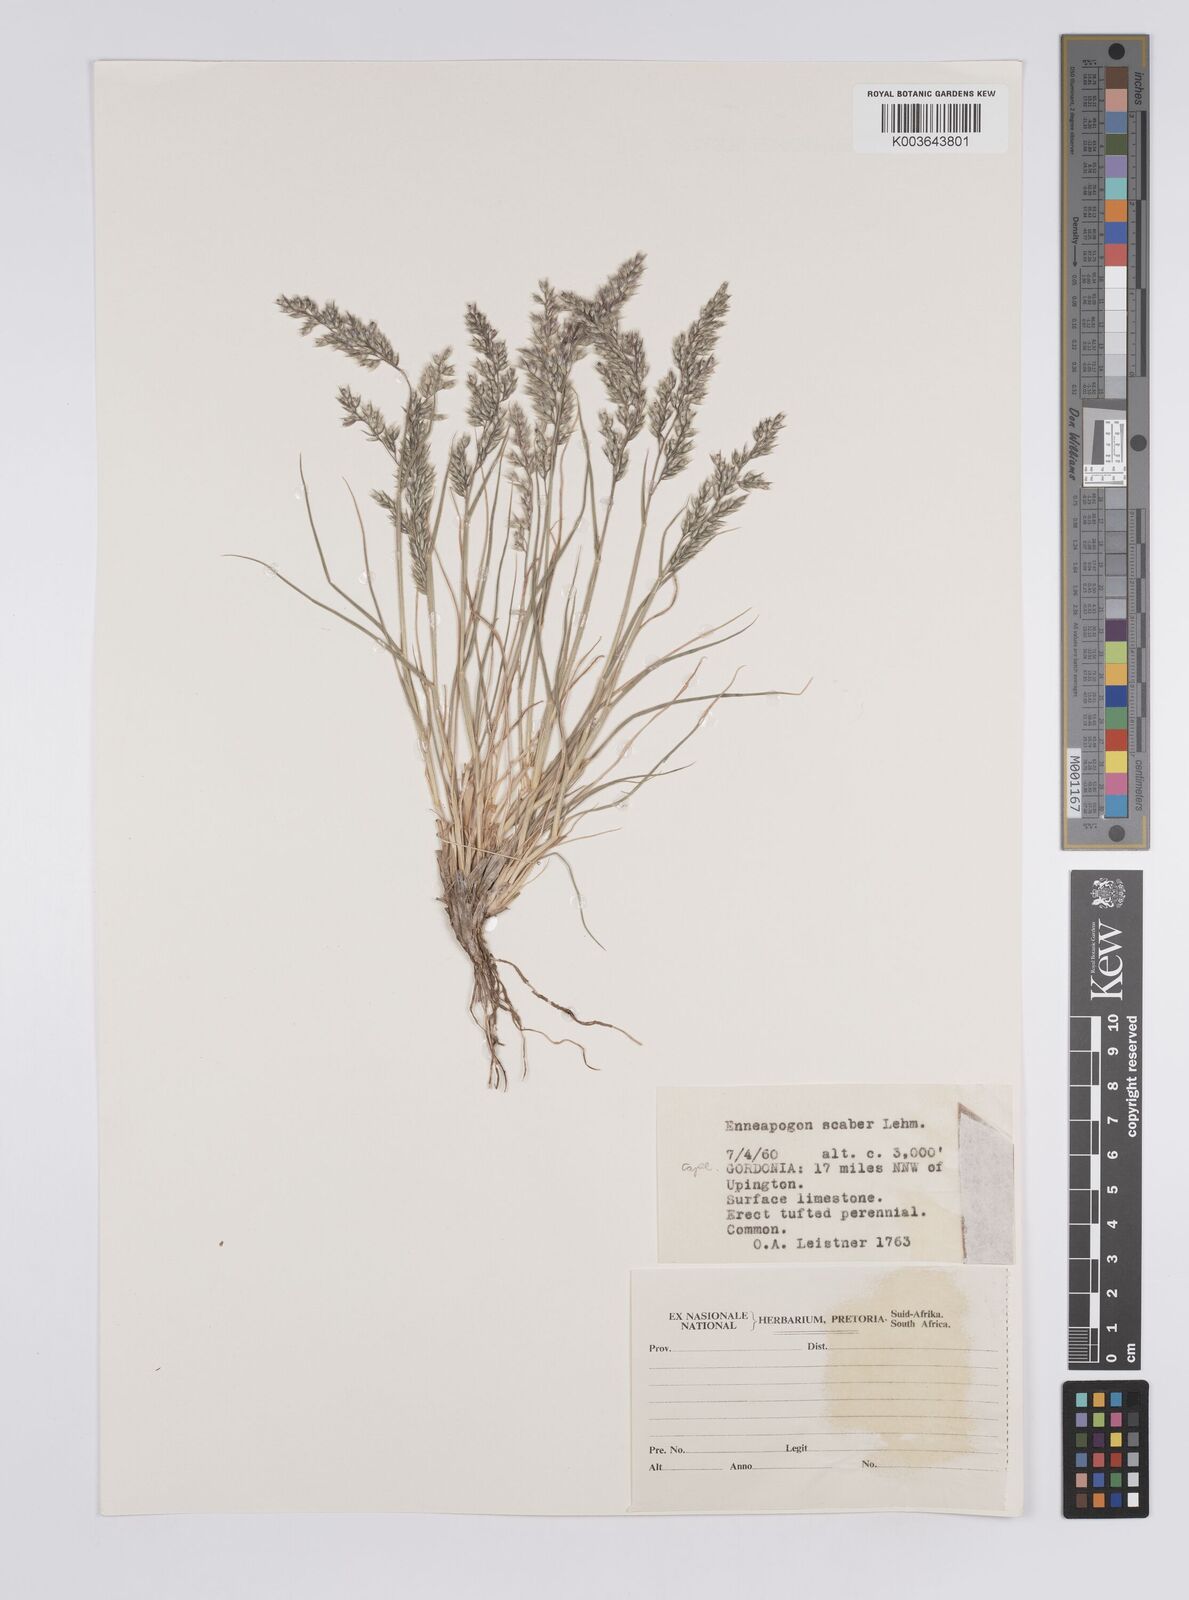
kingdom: Plantae
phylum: Tracheophyta
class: Liliopsida
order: Poales
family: Poaceae
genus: Enneapogon
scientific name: Enneapogon scaber
